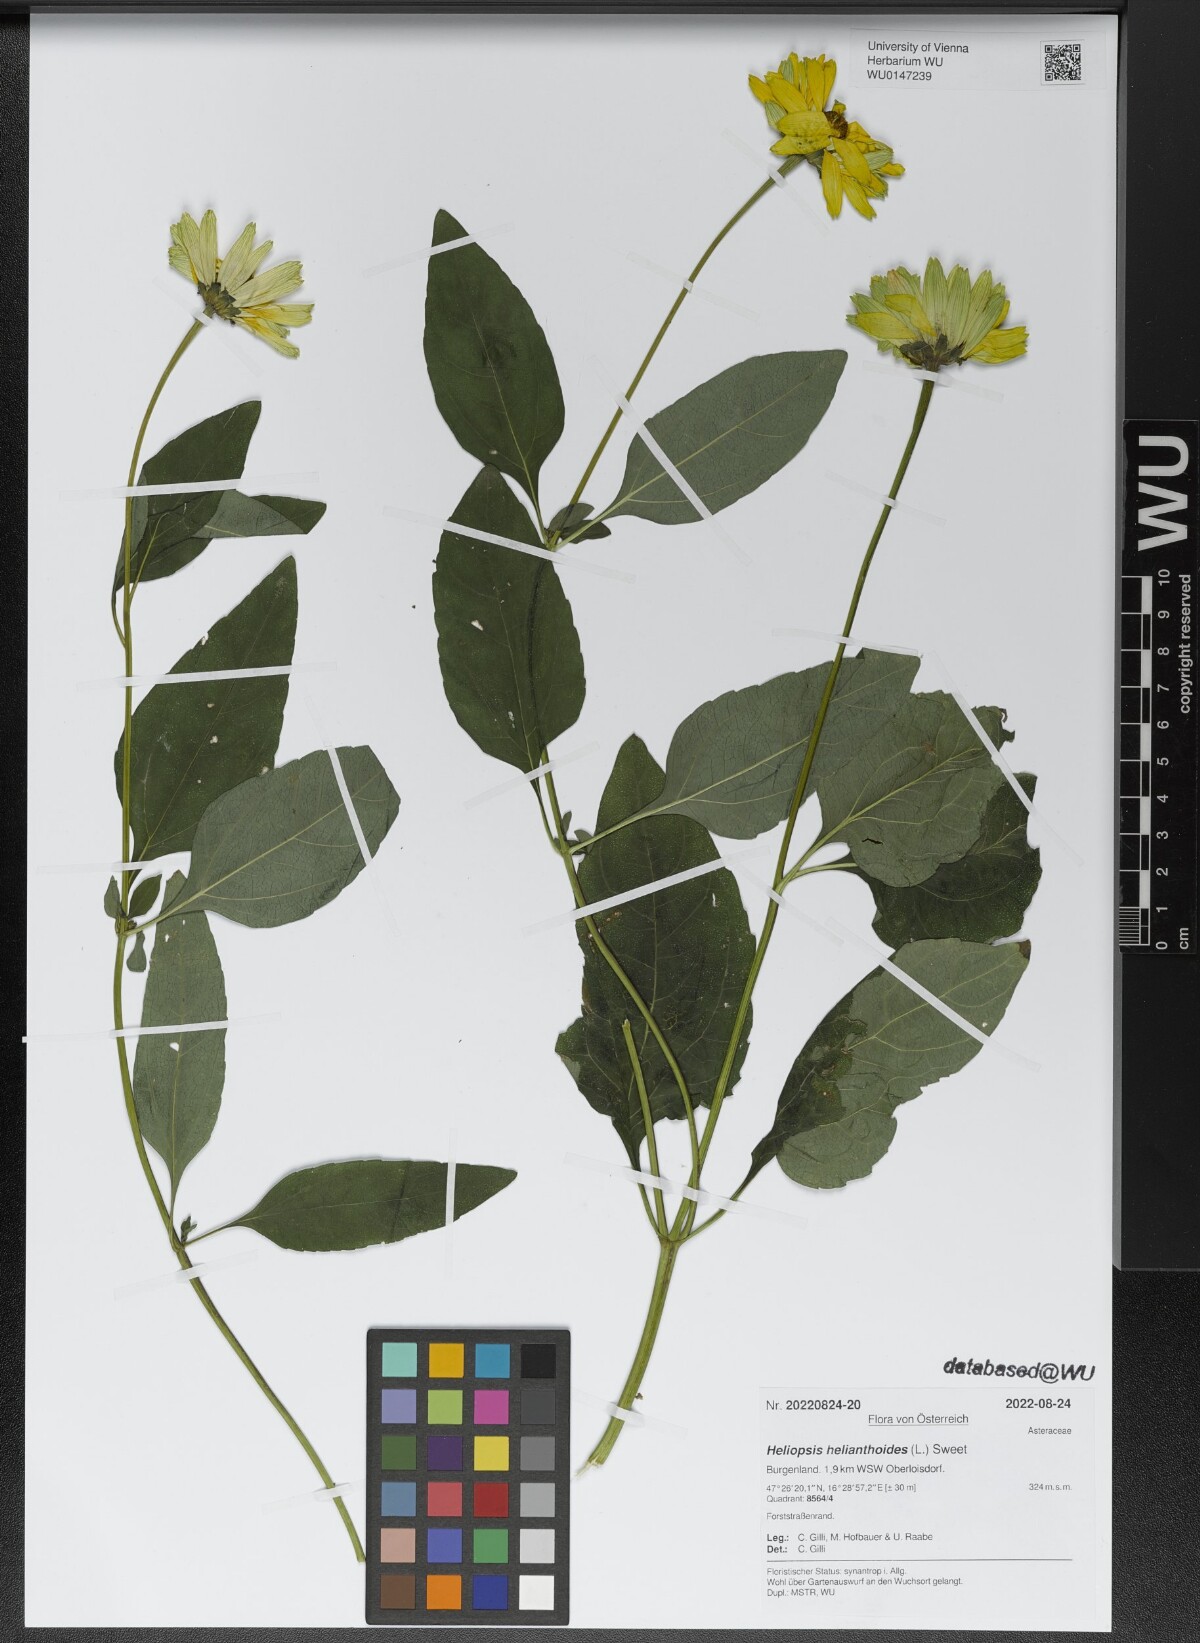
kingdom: Plantae
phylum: Tracheophyta
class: Magnoliopsida
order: Asterales
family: Asteraceae
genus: Heliopsis
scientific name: Heliopsis helianthoides
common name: False sunflower
